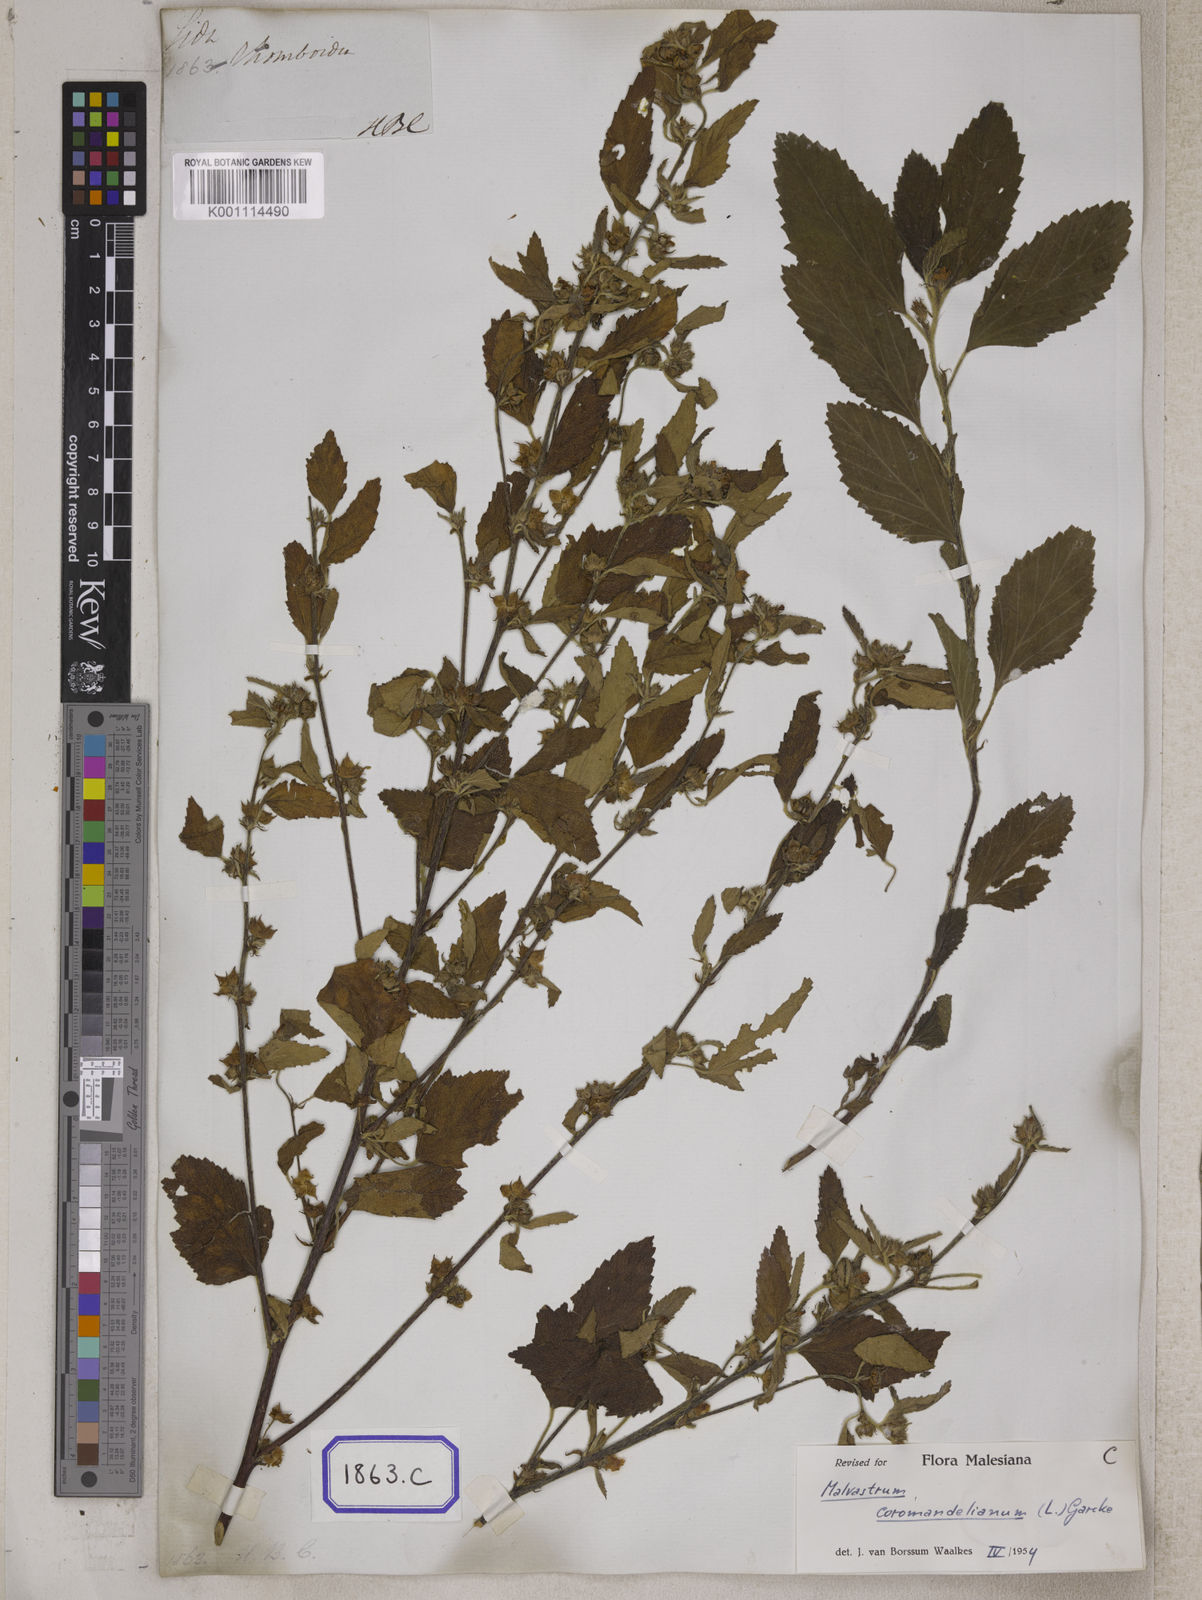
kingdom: Plantae
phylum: Tracheophyta
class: Magnoliopsida
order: Malvales
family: Malvaceae
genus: Sida
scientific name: Sida rhombifolia
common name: Queensland-hemp
